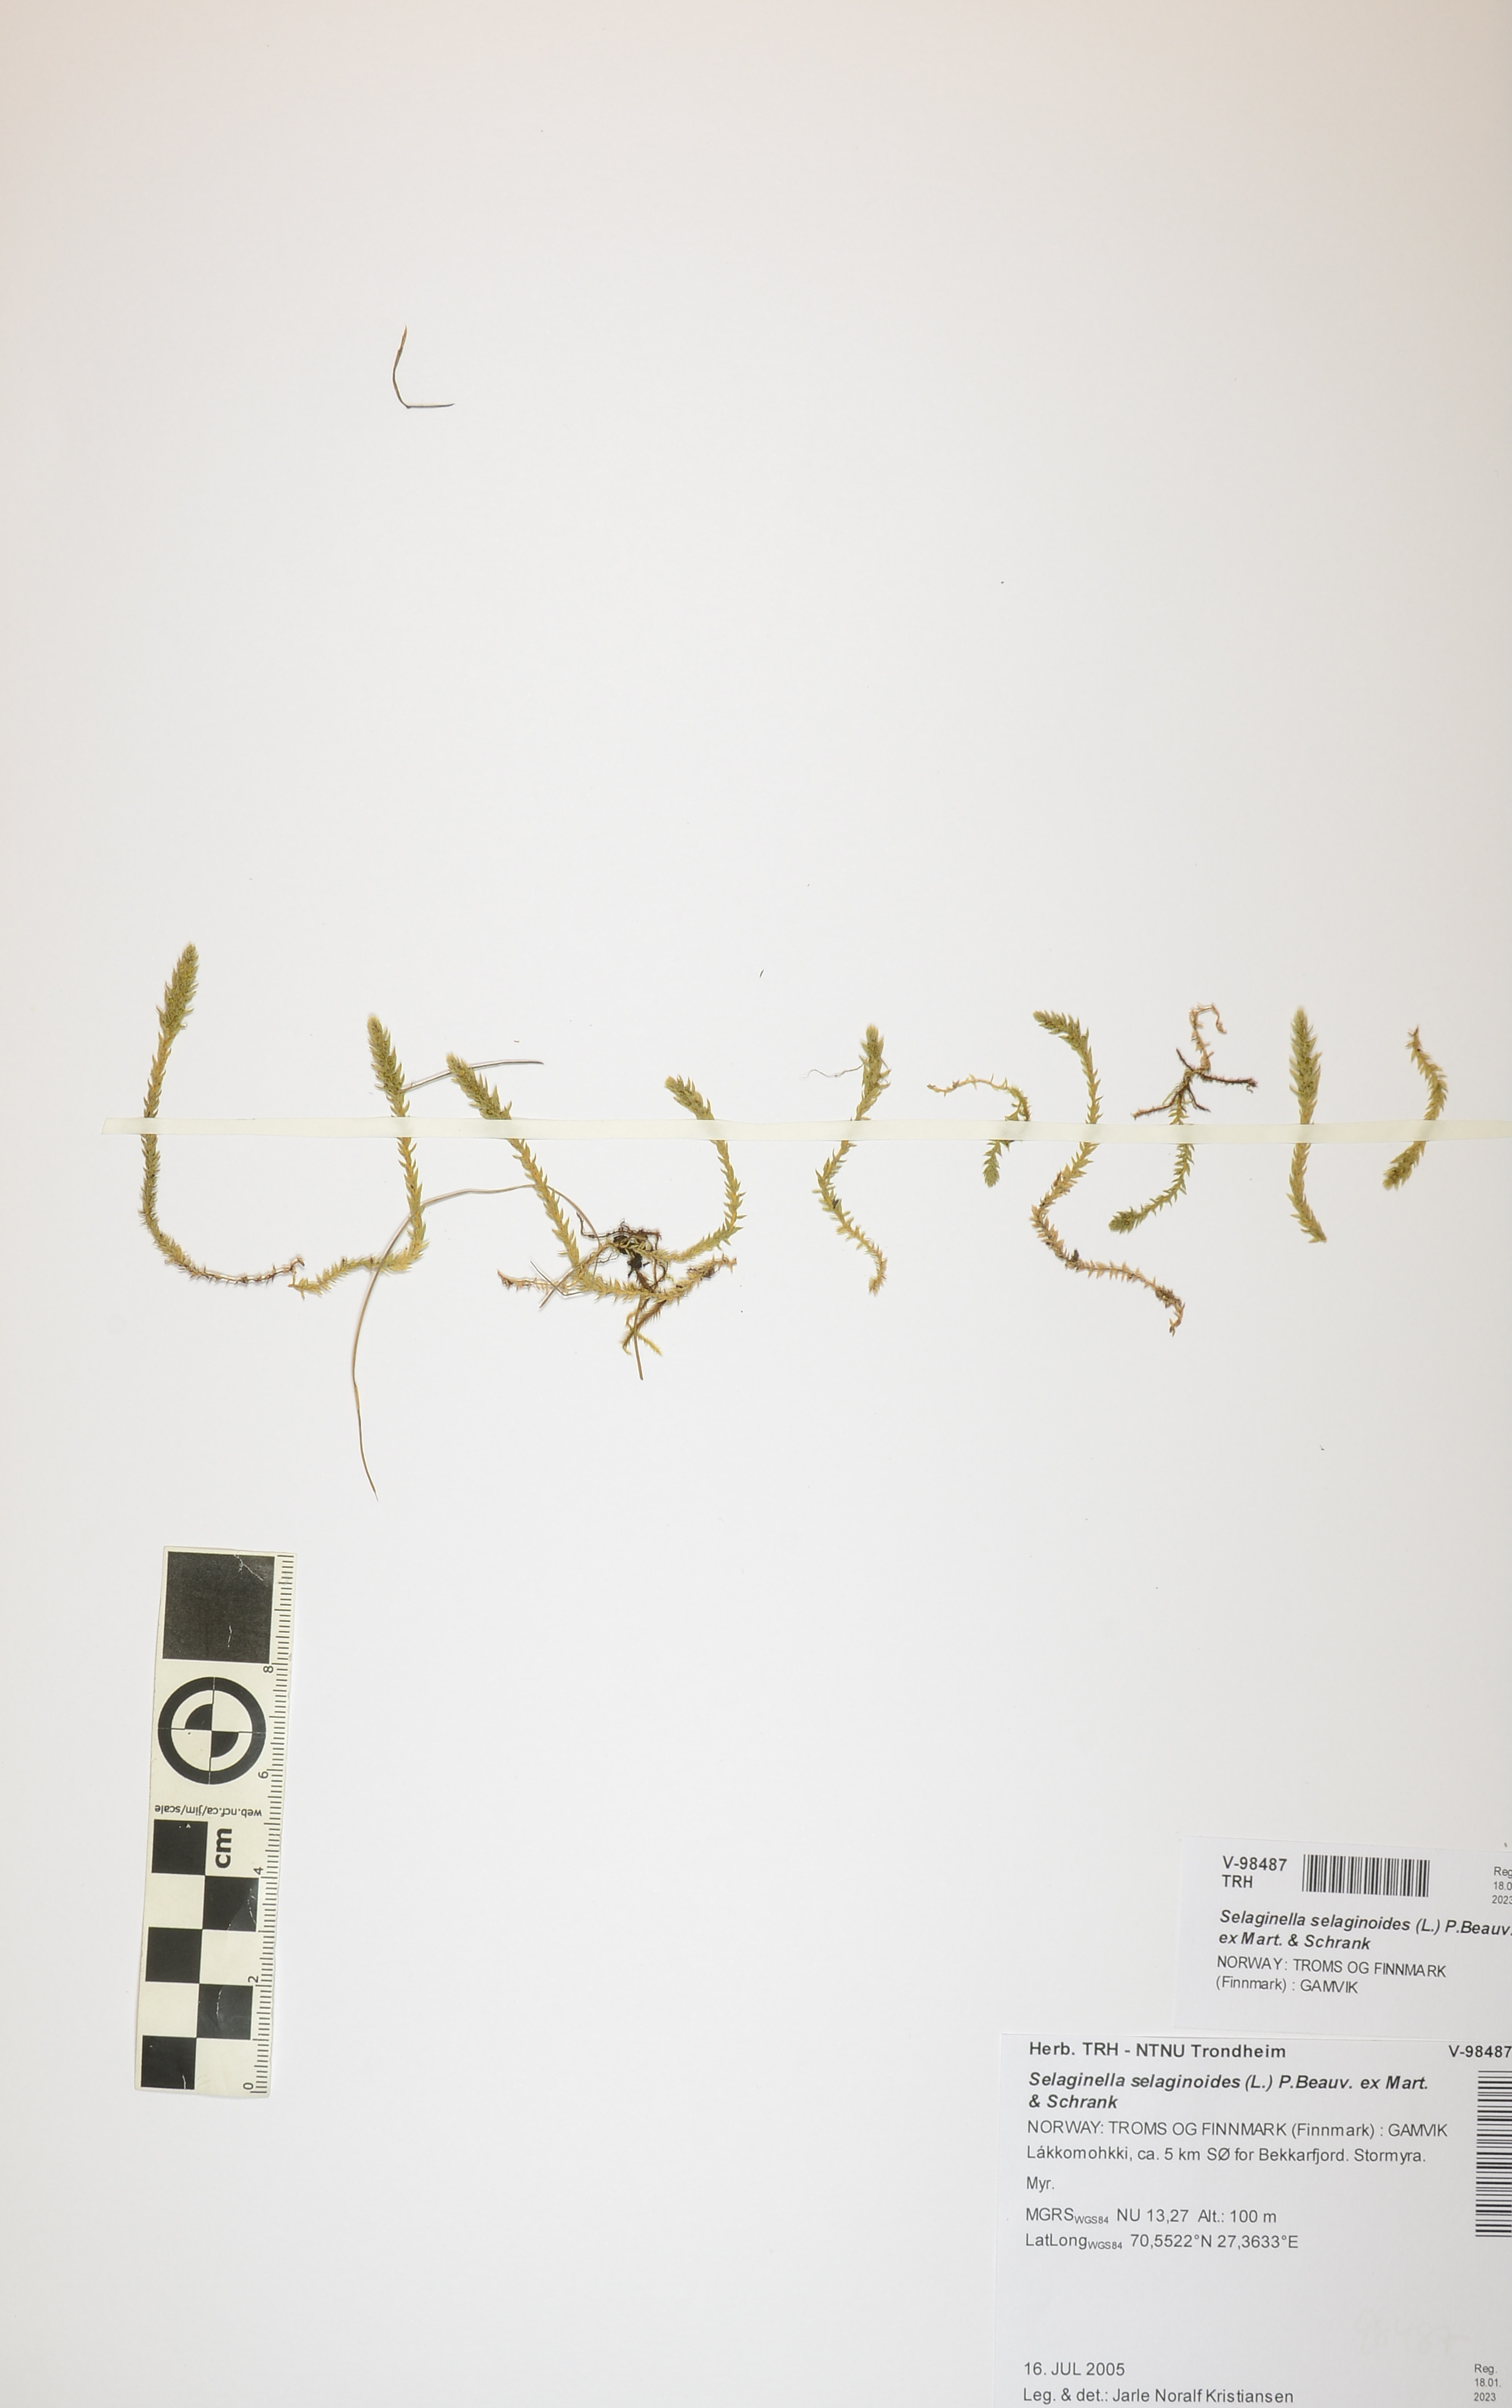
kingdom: Plantae
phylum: Tracheophyta
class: Lycopodiopsida
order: Selaginellales
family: Selaginellaceae
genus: Selaginella
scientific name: Selaginella selaginoides
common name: Prickly mountain-moss
